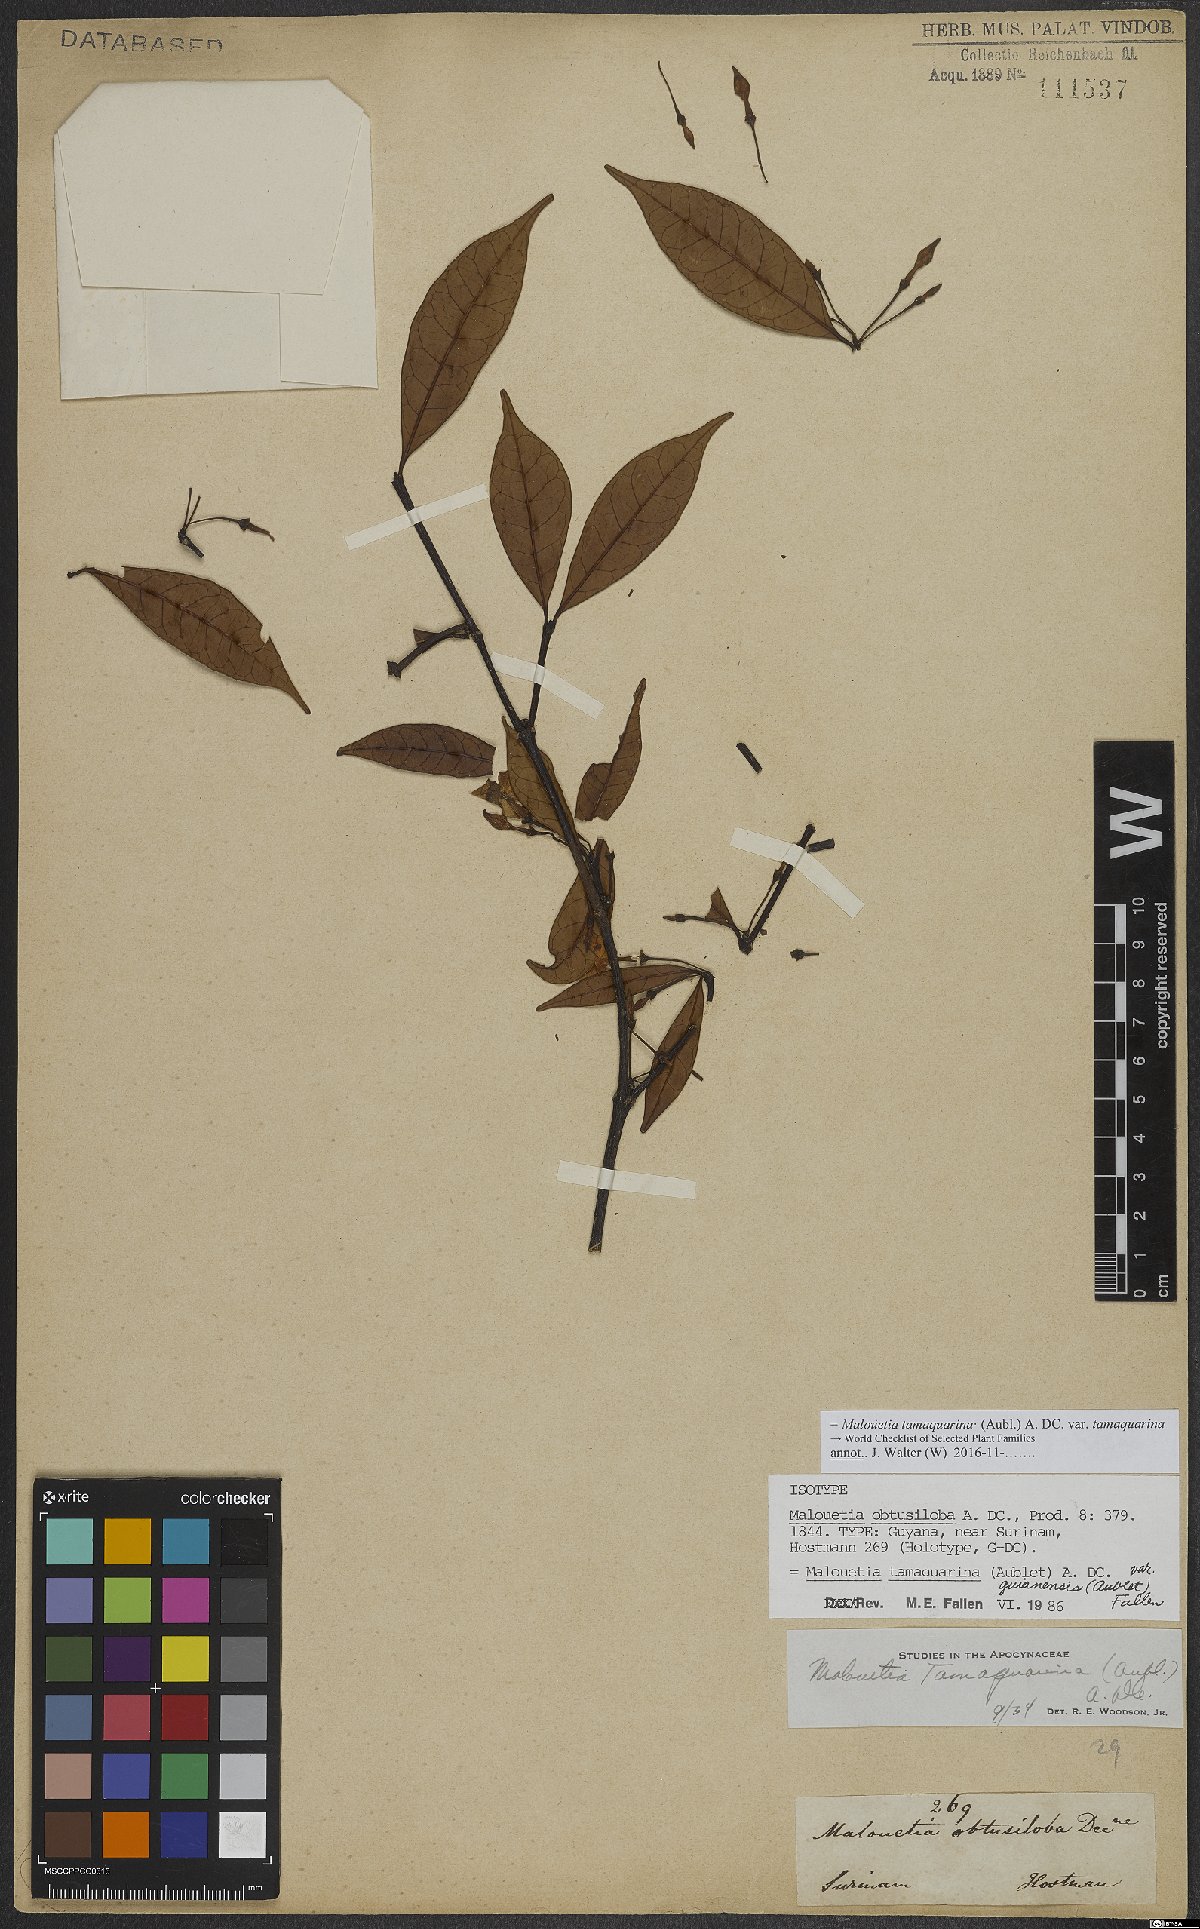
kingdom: Plantae
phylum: Tracheophyta
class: Magnoliopsida
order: Gentianales
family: Apocynaceae
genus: Malouetia
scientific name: Malouetia tamaquarina
